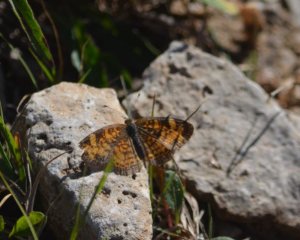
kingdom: Animalia
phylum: Arthropoda
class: Insecta
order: Lepidoptera
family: Nymphalidae
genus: Phyciodes
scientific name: Phyciodes
